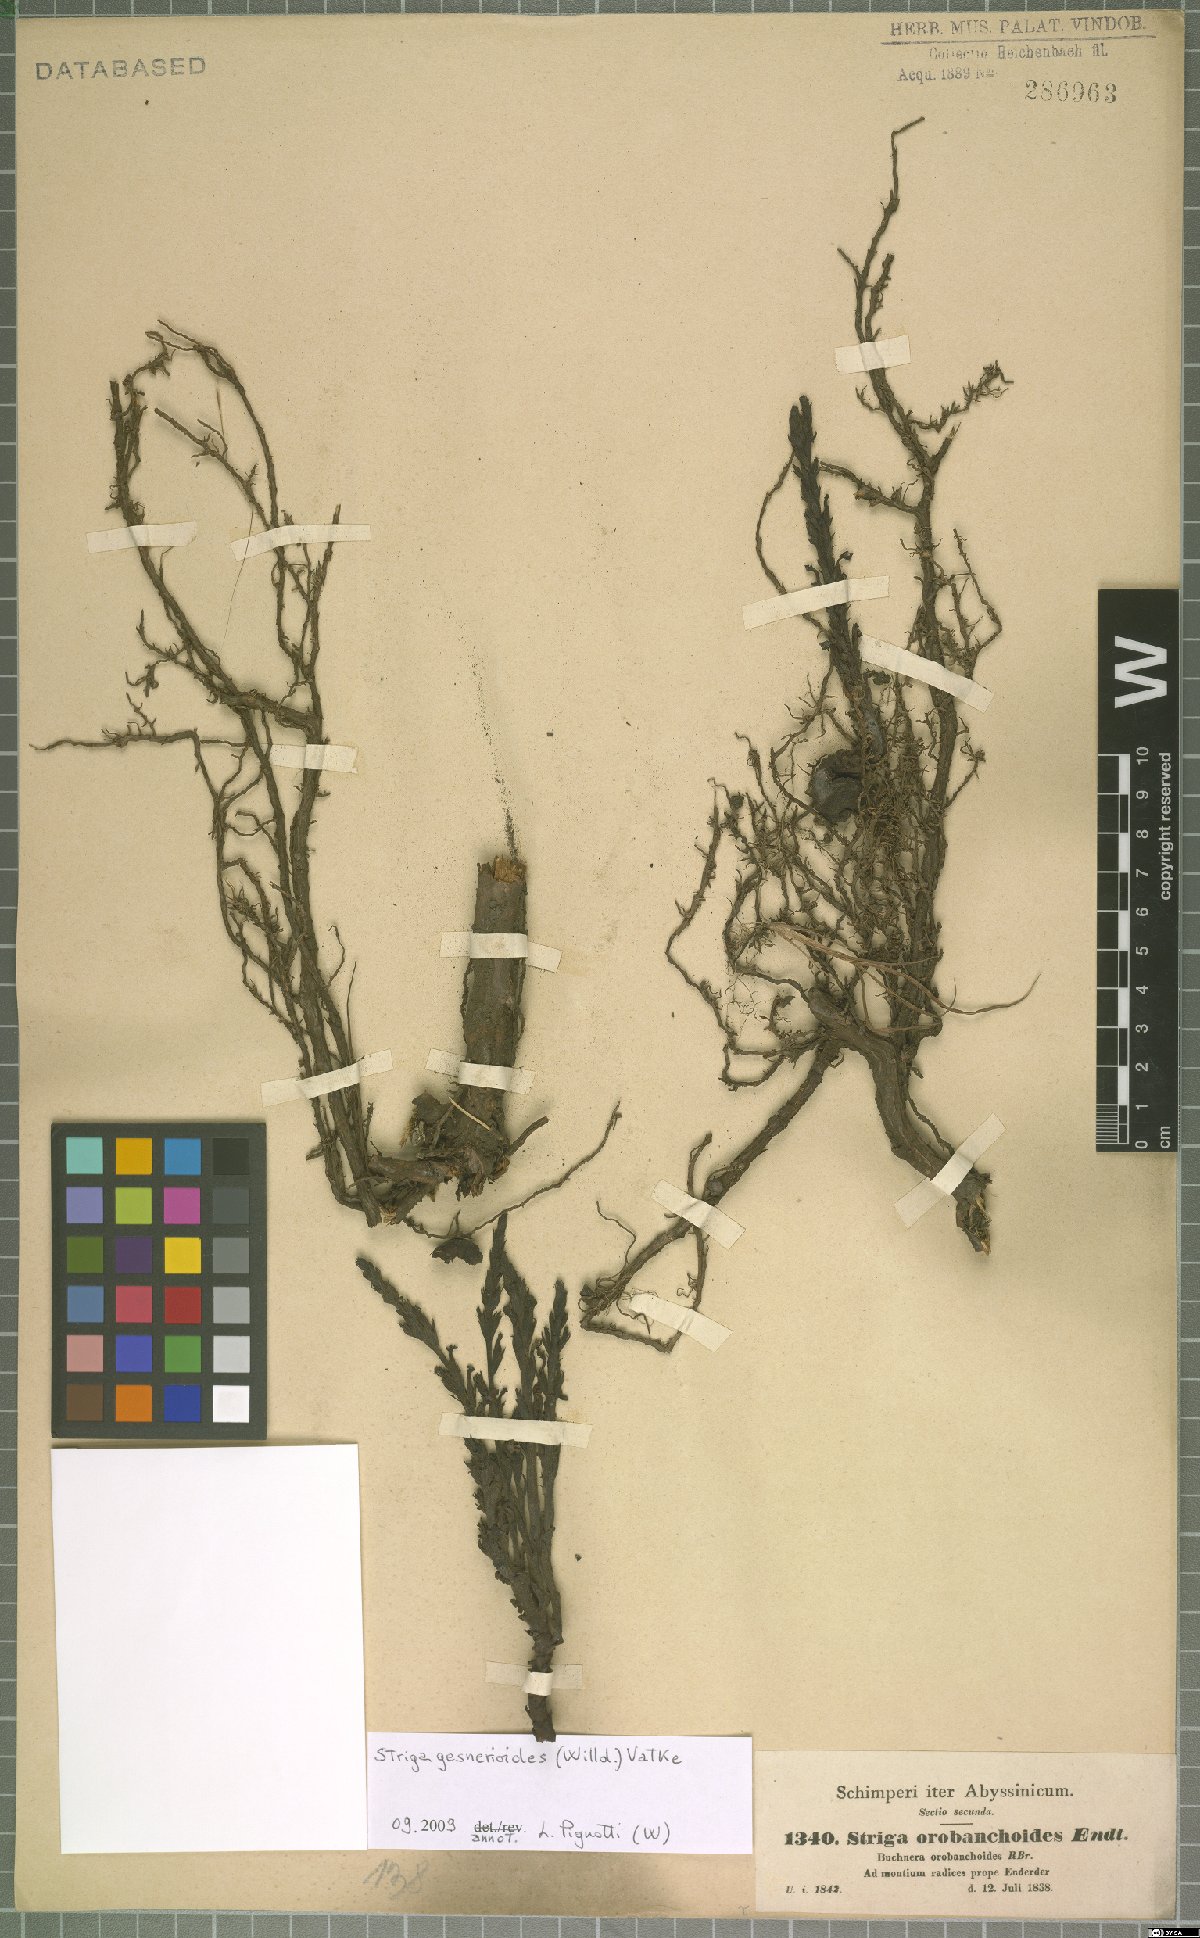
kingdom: Plantae
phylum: Tracheophyta
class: Magnoliopsida
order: Lamiales
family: Orobanchaceae
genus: Striga
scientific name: Striga gesnerioides
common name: Cowpea witchweed
